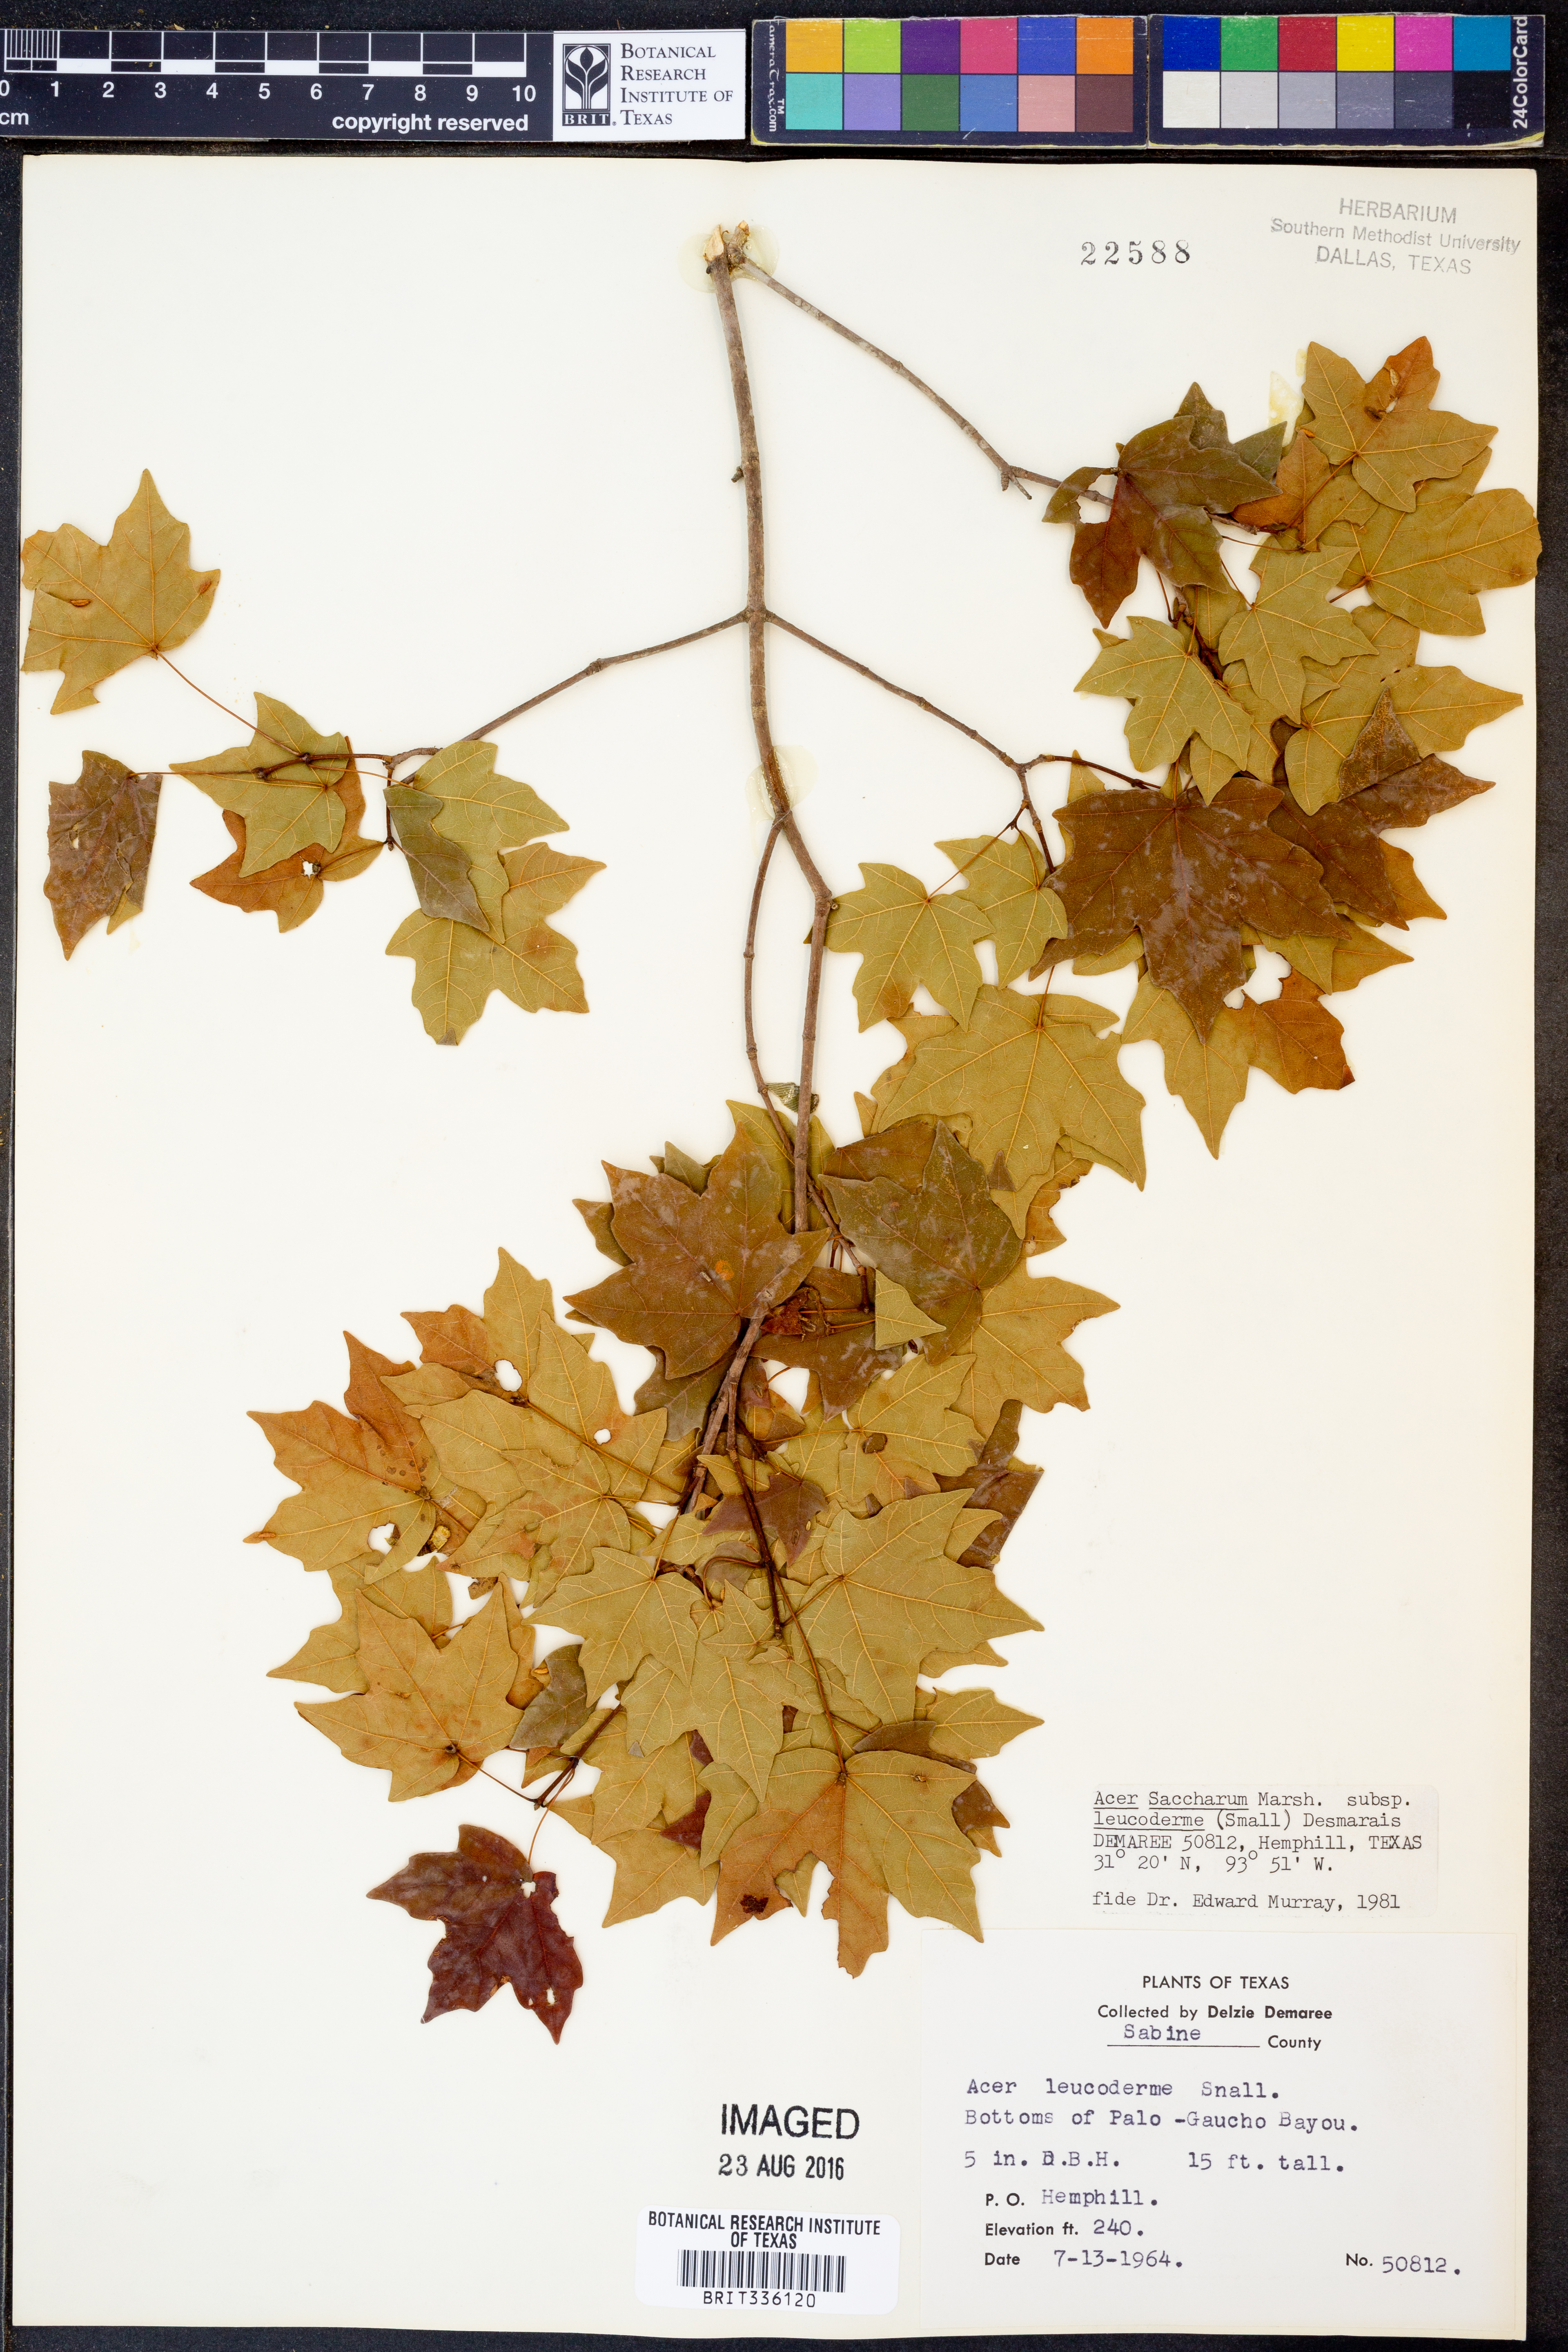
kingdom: Plantae
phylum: Tracheophyta
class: Magnoliopsida
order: Sapindales
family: Sapindaceae
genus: Acer
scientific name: Acer leucoderme
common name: Chalk maple
